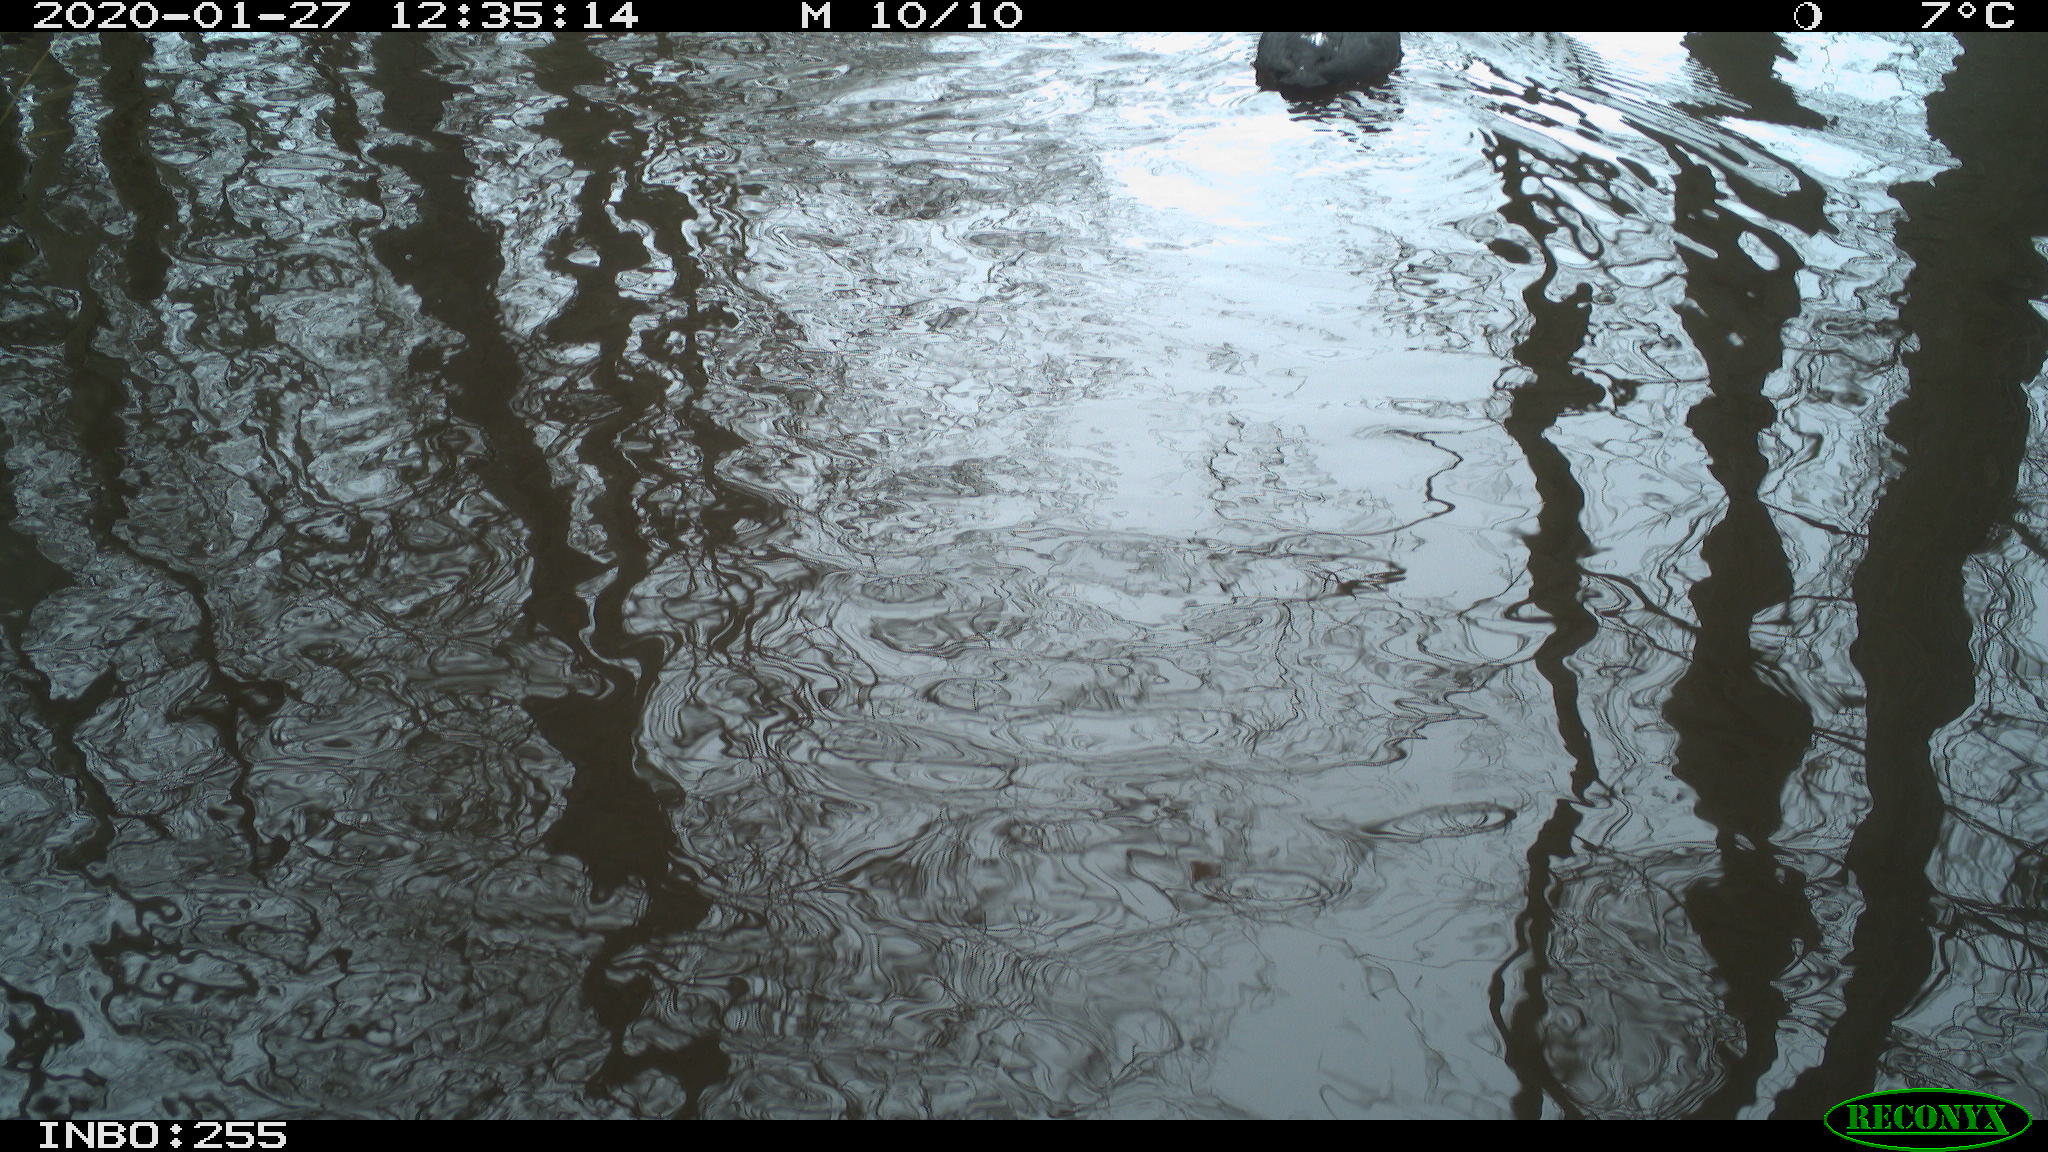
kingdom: Animalia
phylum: Chordata
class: Aves
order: Gruiformes
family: Rallidae
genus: Fulica
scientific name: Fulica atra
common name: Eurasian coot
